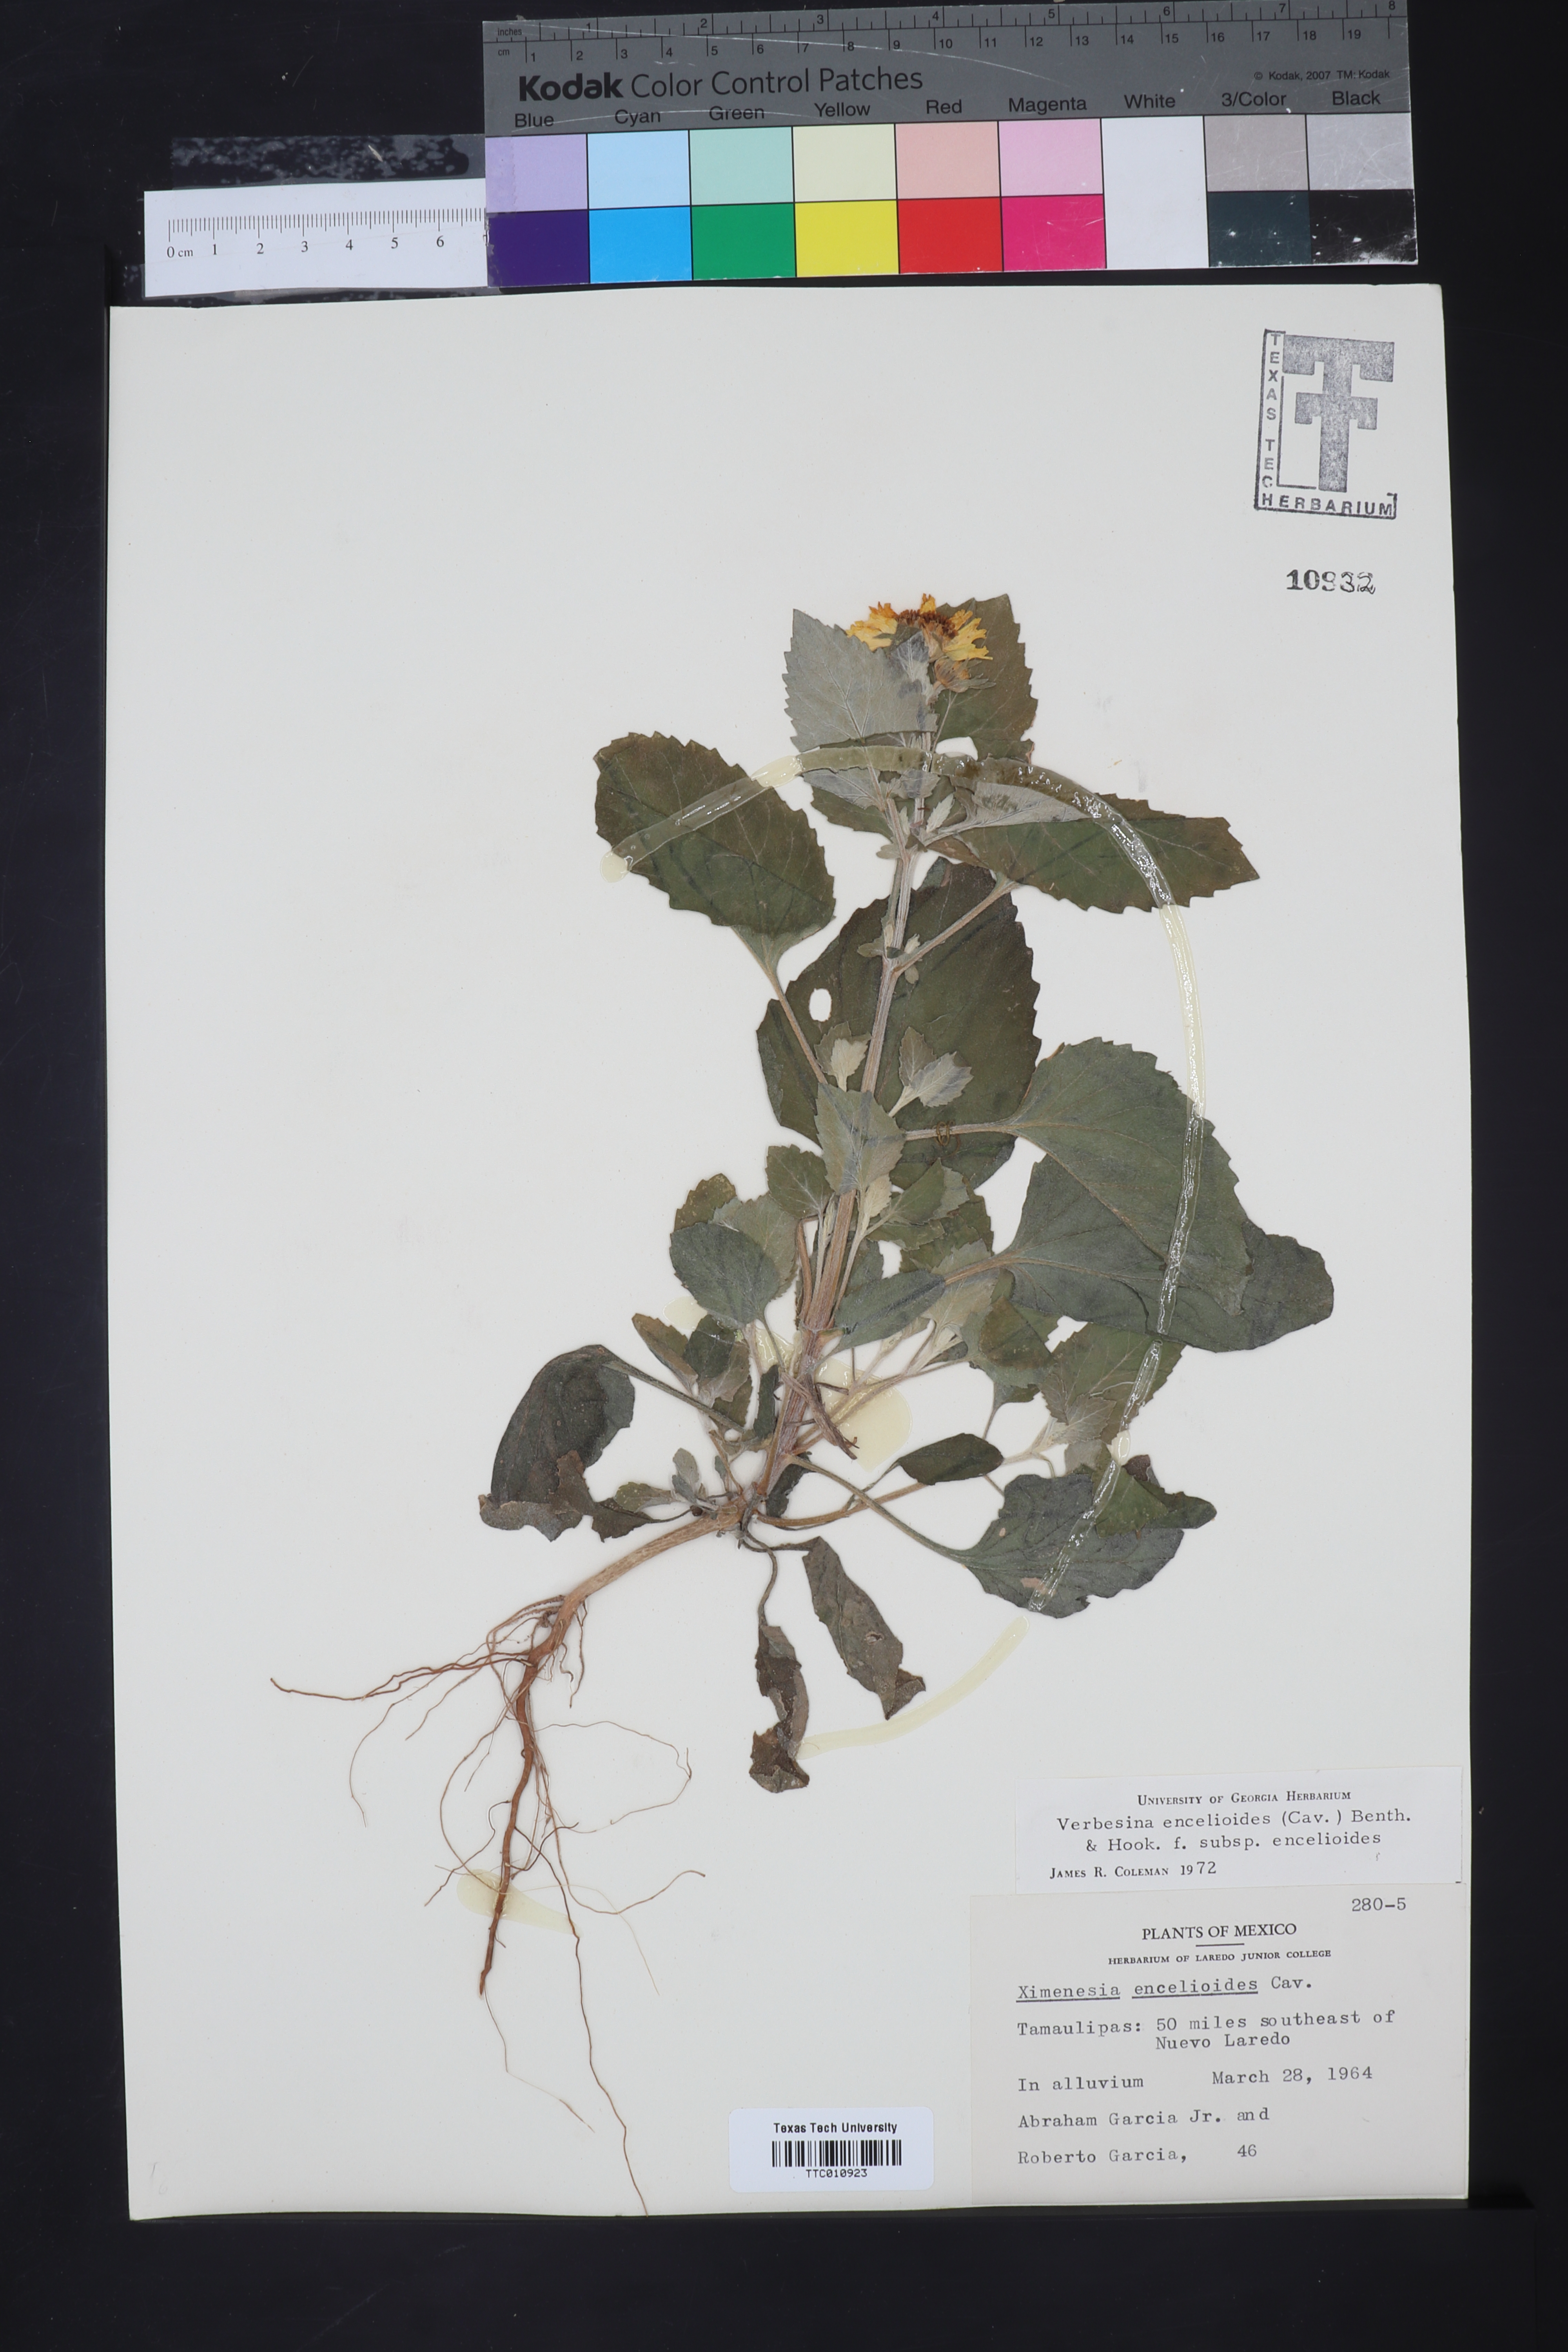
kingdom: Plantae
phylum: Tracheophyta
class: Magnoliopsida
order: Asterales
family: Asteraceae
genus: Verbesina
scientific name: Verbesina encelioides
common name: Golden crownbeard
